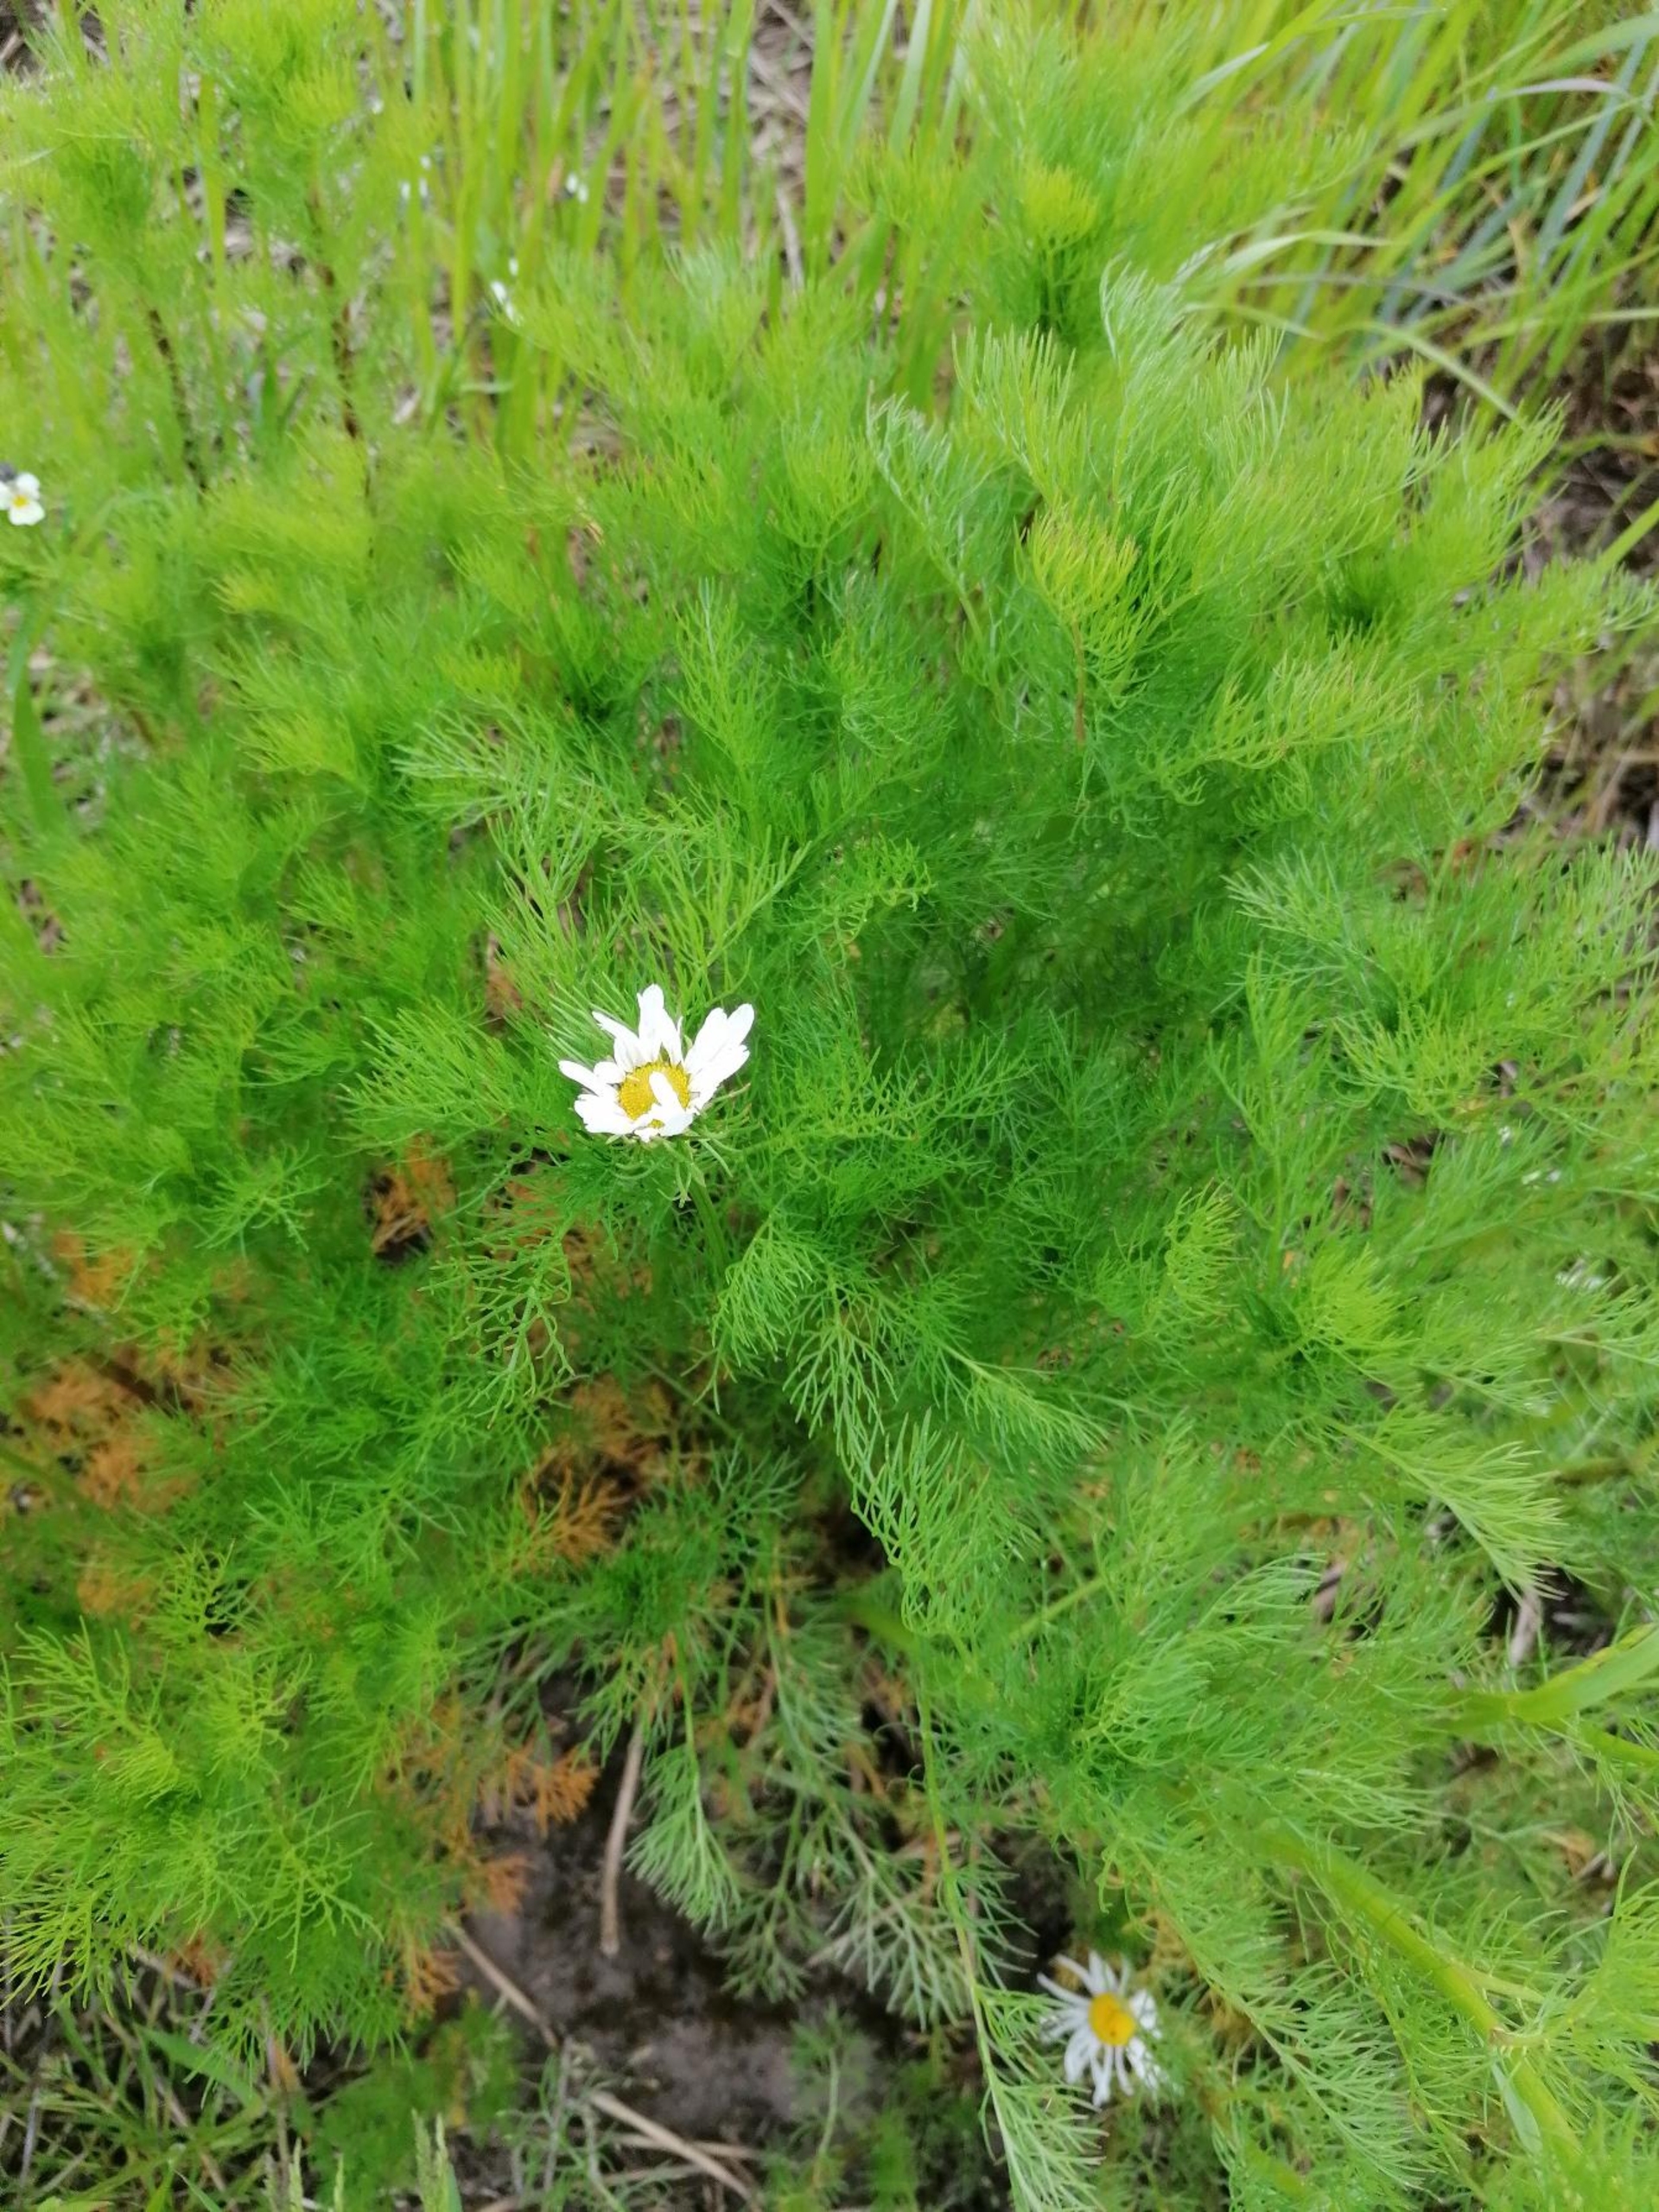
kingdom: Plantae
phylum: Tracheophyta
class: Magnoliopsida
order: Asterales
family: Asteraceae
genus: Tripleurospermum
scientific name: Tripleurospermum inodorum
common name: Lugtløs kamille
